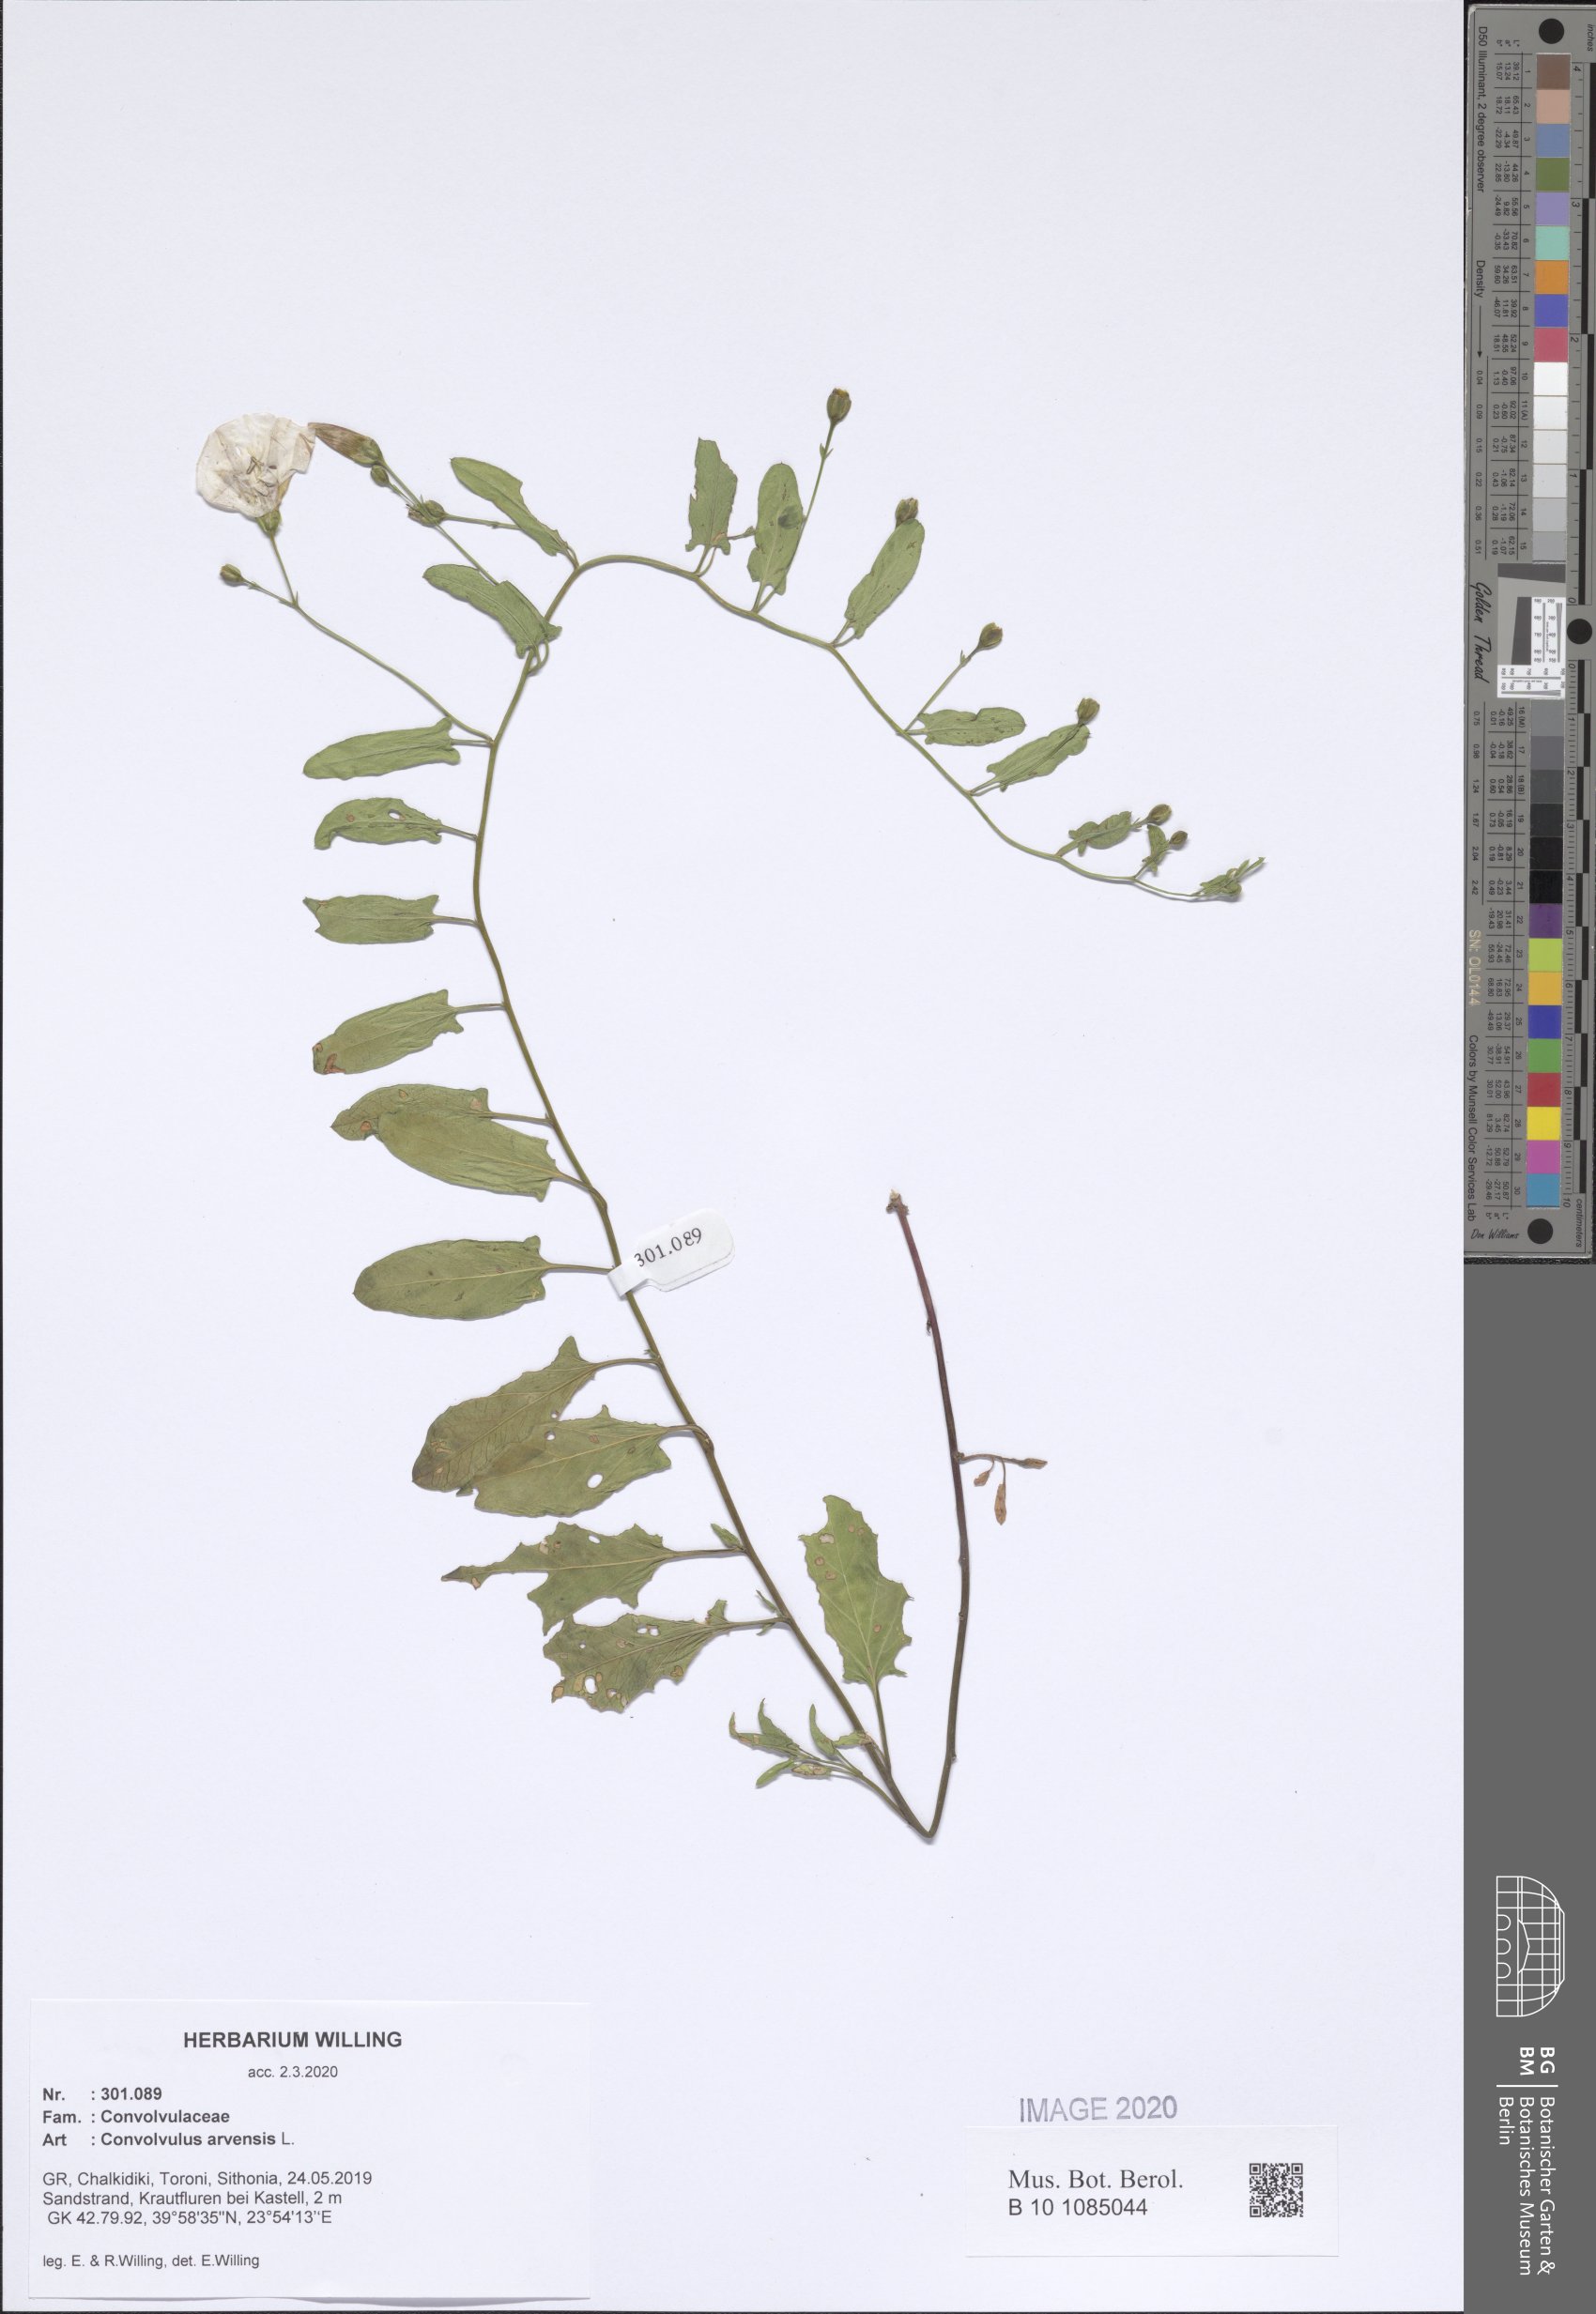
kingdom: Plantae
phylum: Tracheophyta
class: Magnoliopsida
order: Solanales
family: Convolvulaceae
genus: Convolvulus
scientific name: Convolvulus arvensis
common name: Field bindweed
